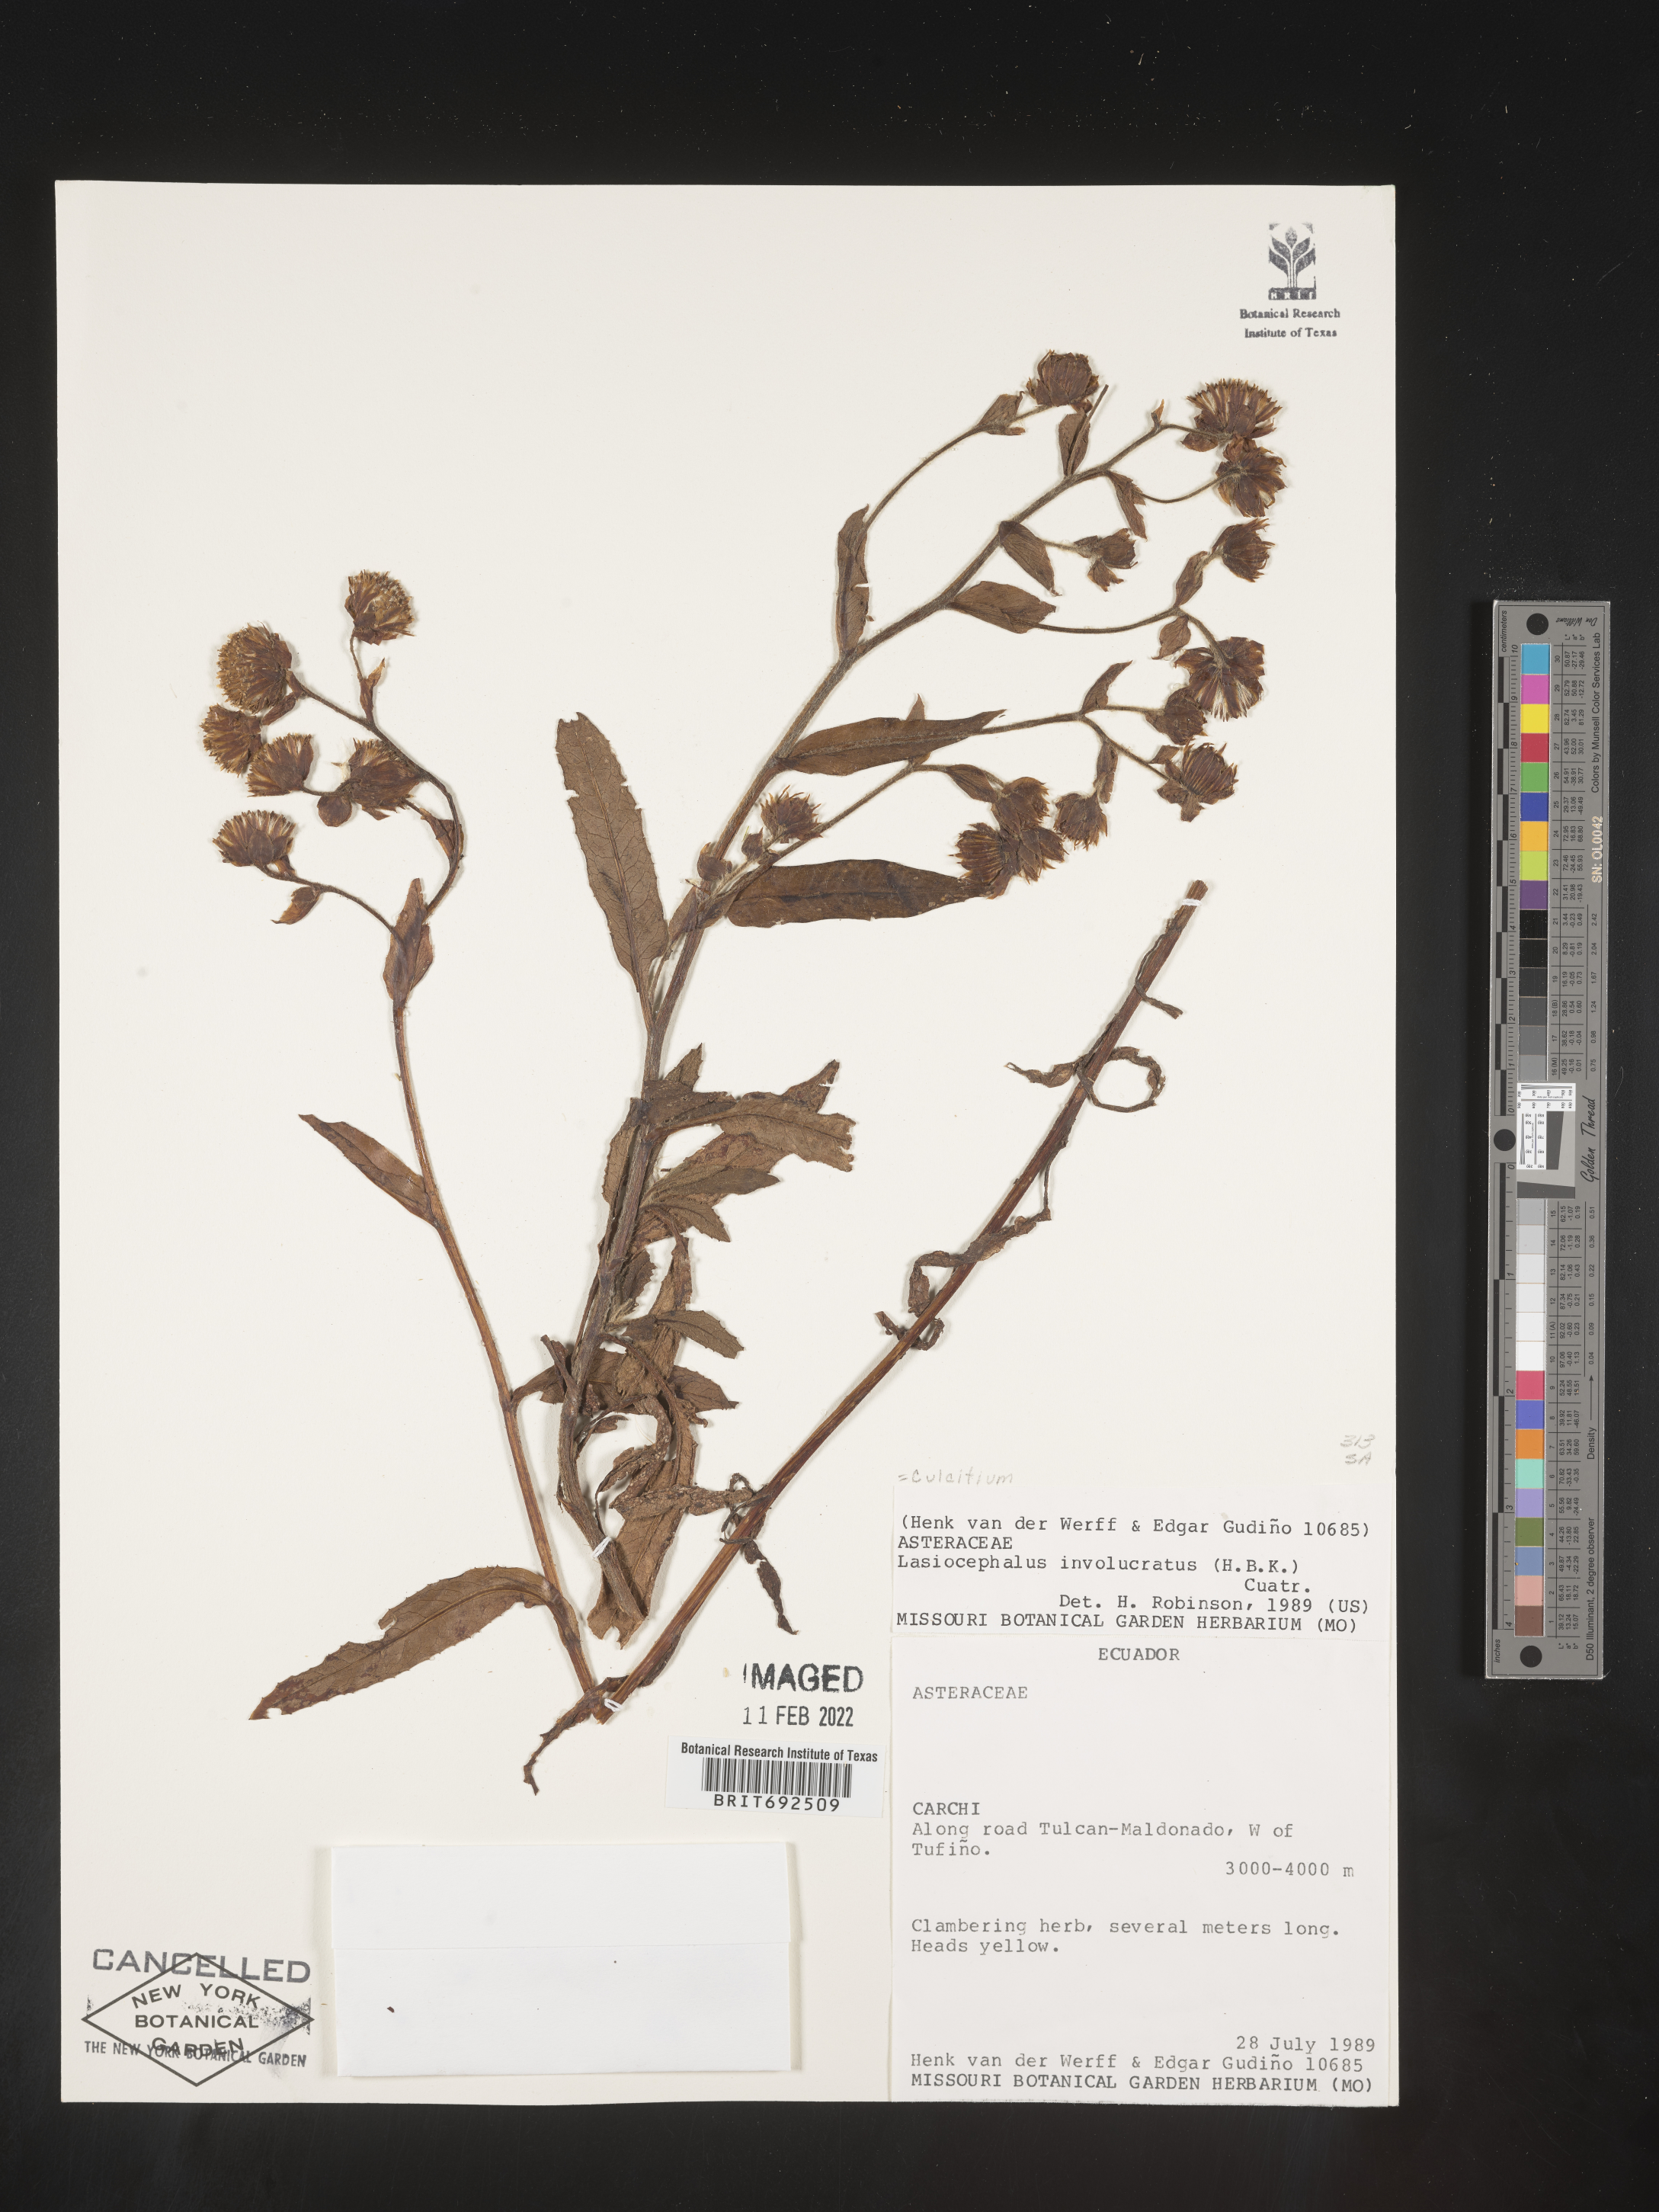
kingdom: Plantae
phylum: Tracheophyta
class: Magnoliopsida
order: Asterales
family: Asteraceae
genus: Culcitium
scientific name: Culcitium
